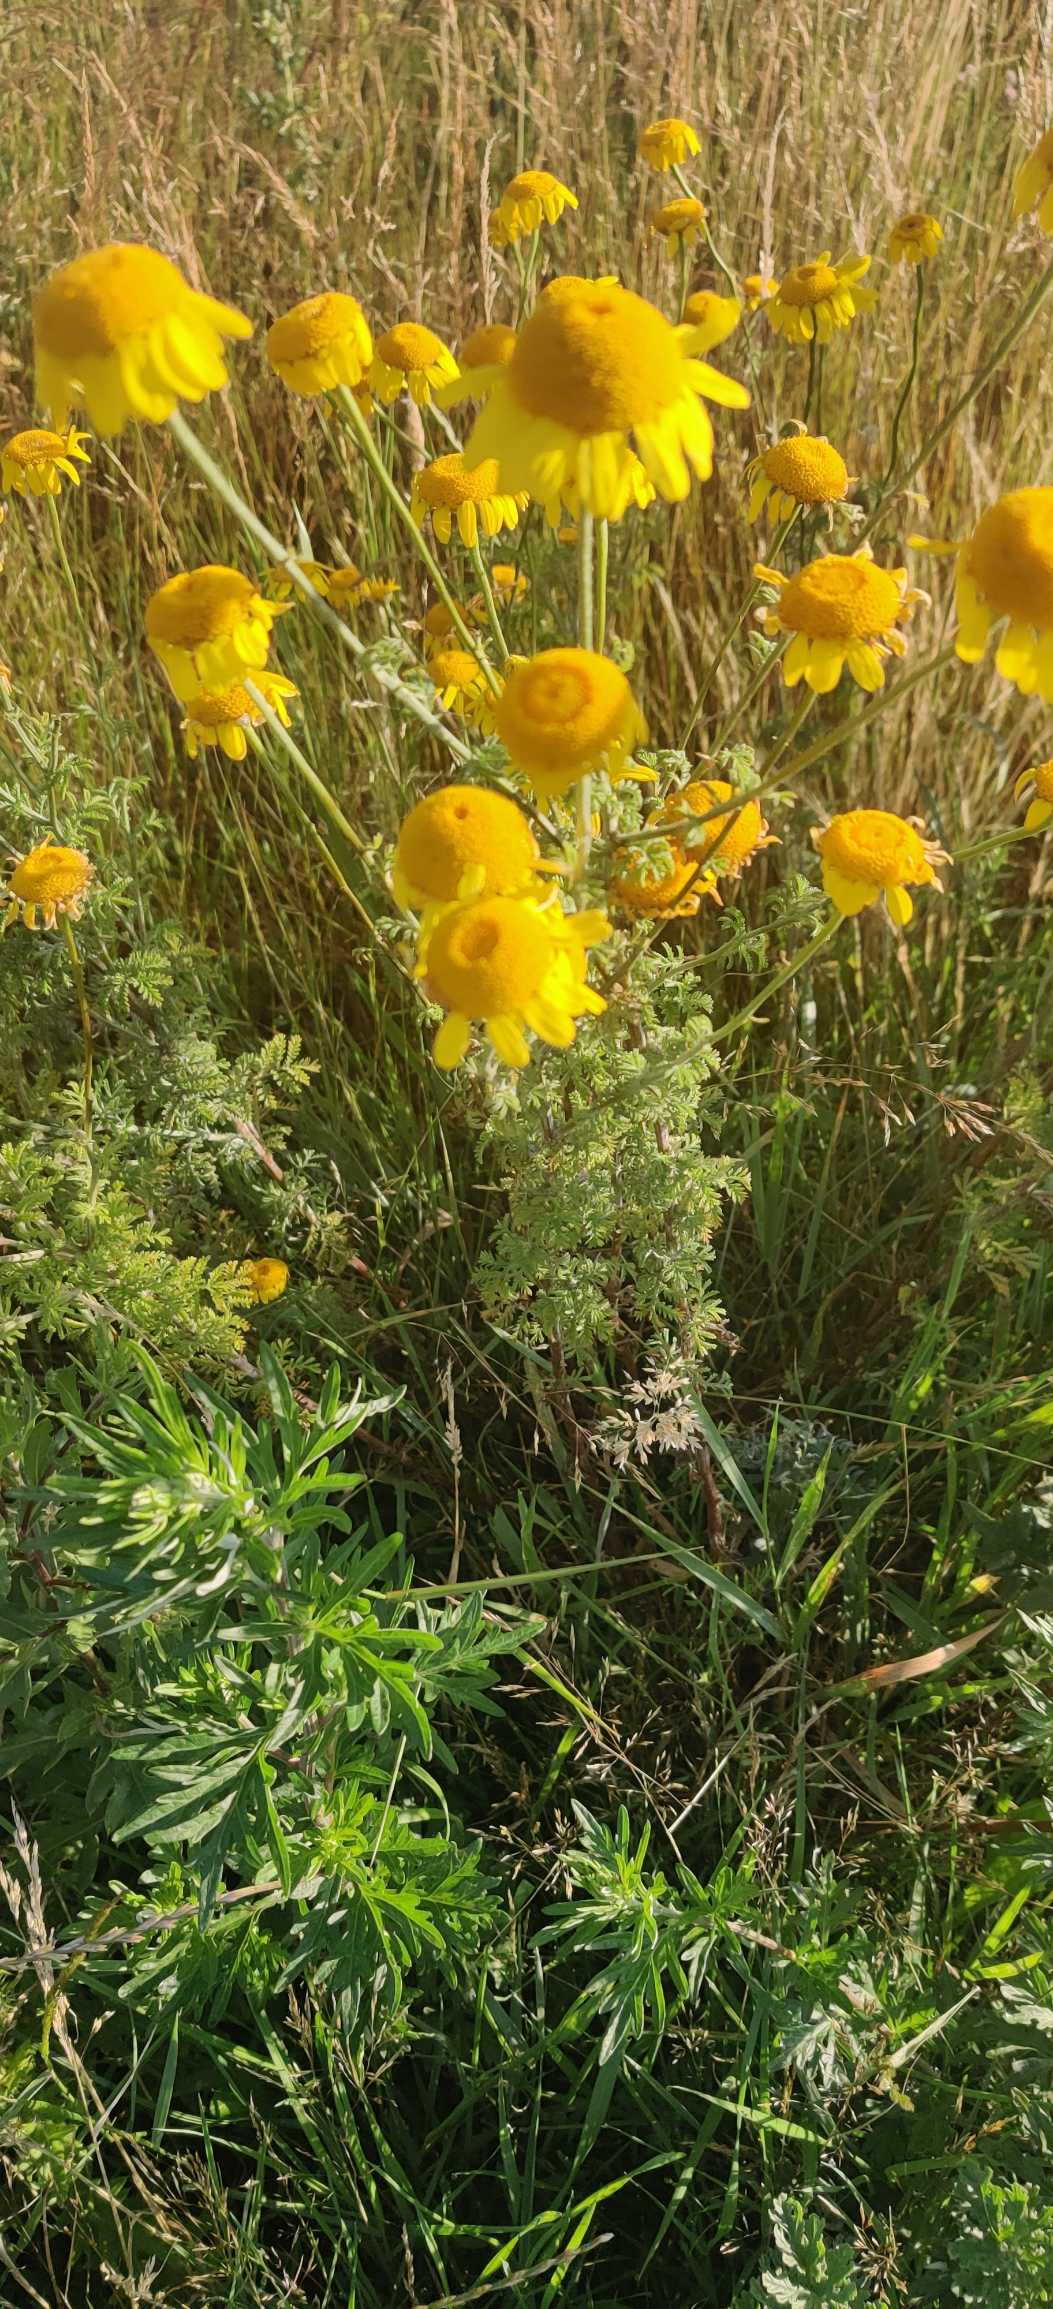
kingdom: Plantae
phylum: Tracheophyta
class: Magnoliopsida
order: Asterales
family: Asteraceae
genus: Cota
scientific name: Cota tinctoria
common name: Farve-gåseurt
